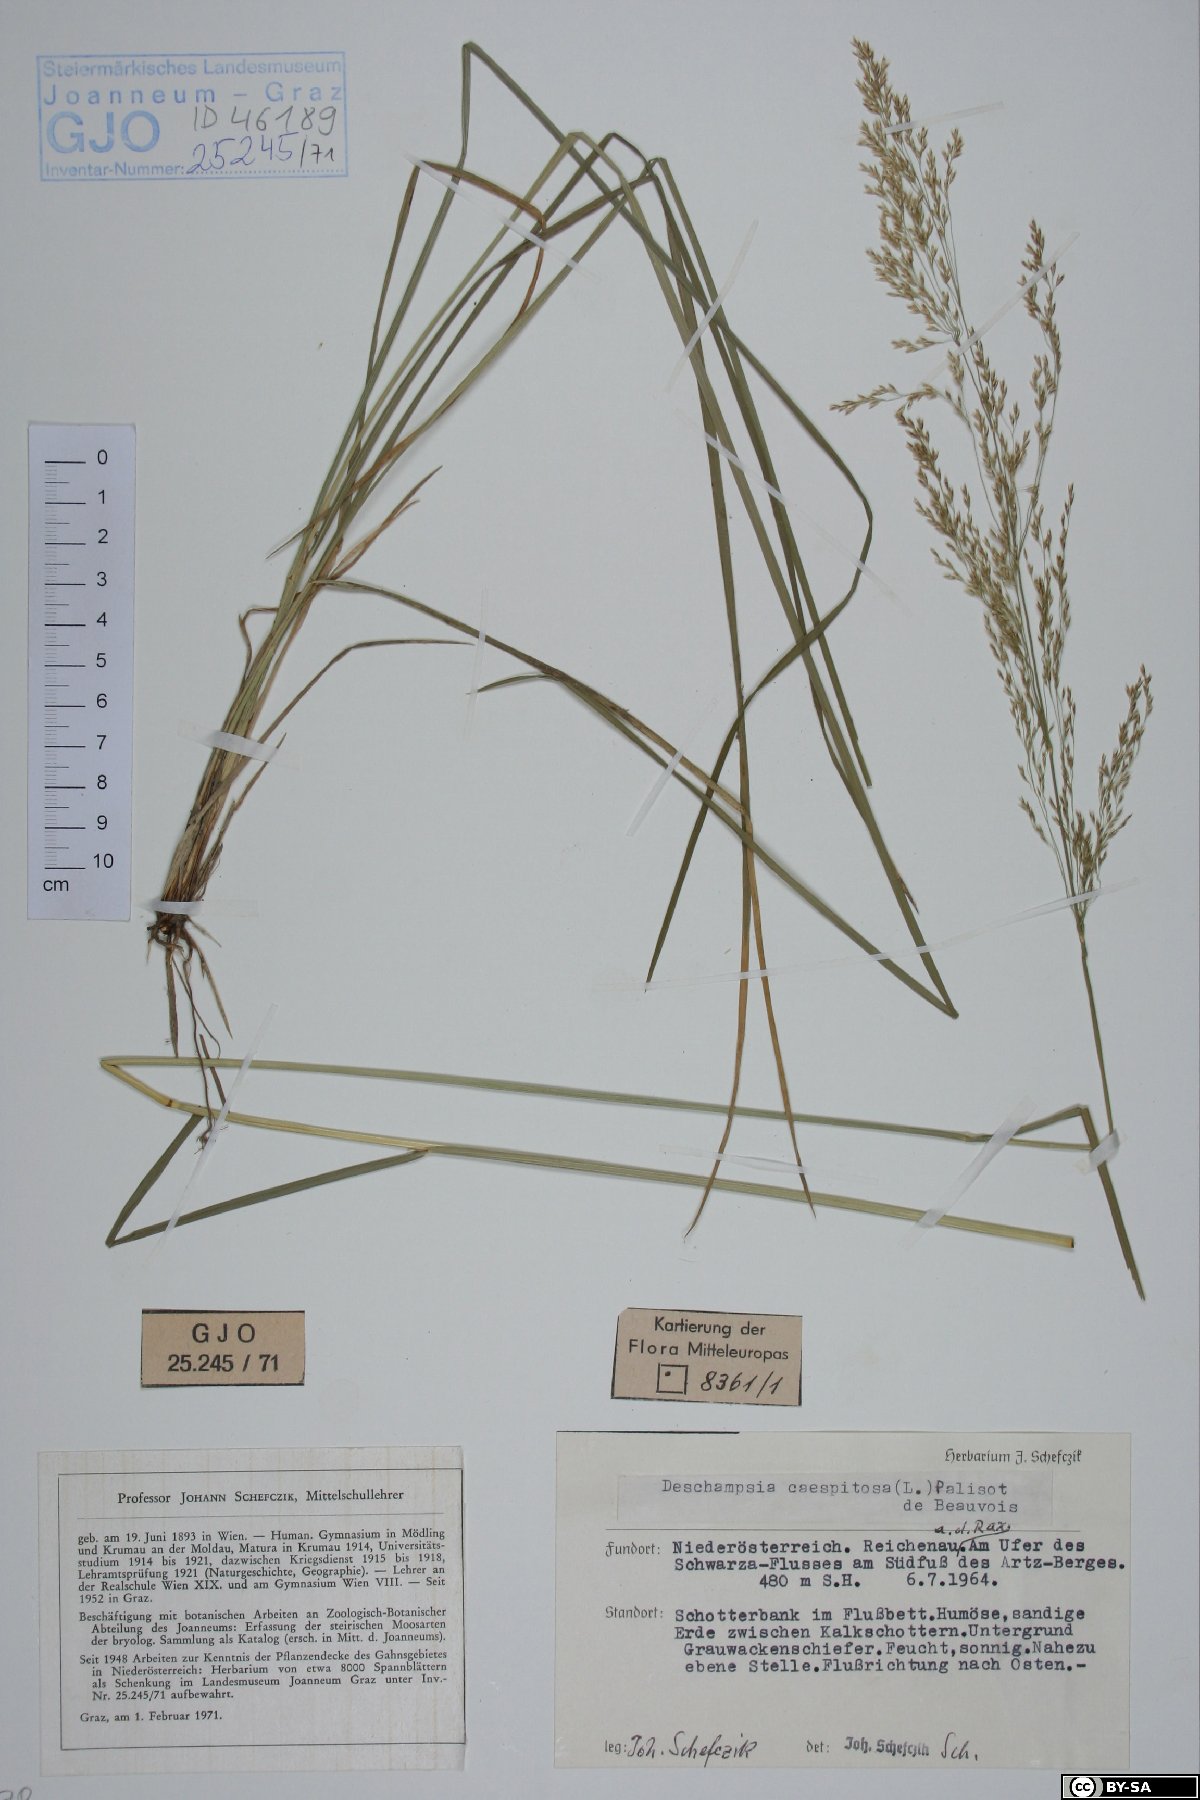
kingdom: Plantae
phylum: Tracheophyta
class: Liliopsida
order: Poales
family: Poaceae
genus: Deschampsia
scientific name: Deschampsia cespitosa
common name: Tufted hair-grass
